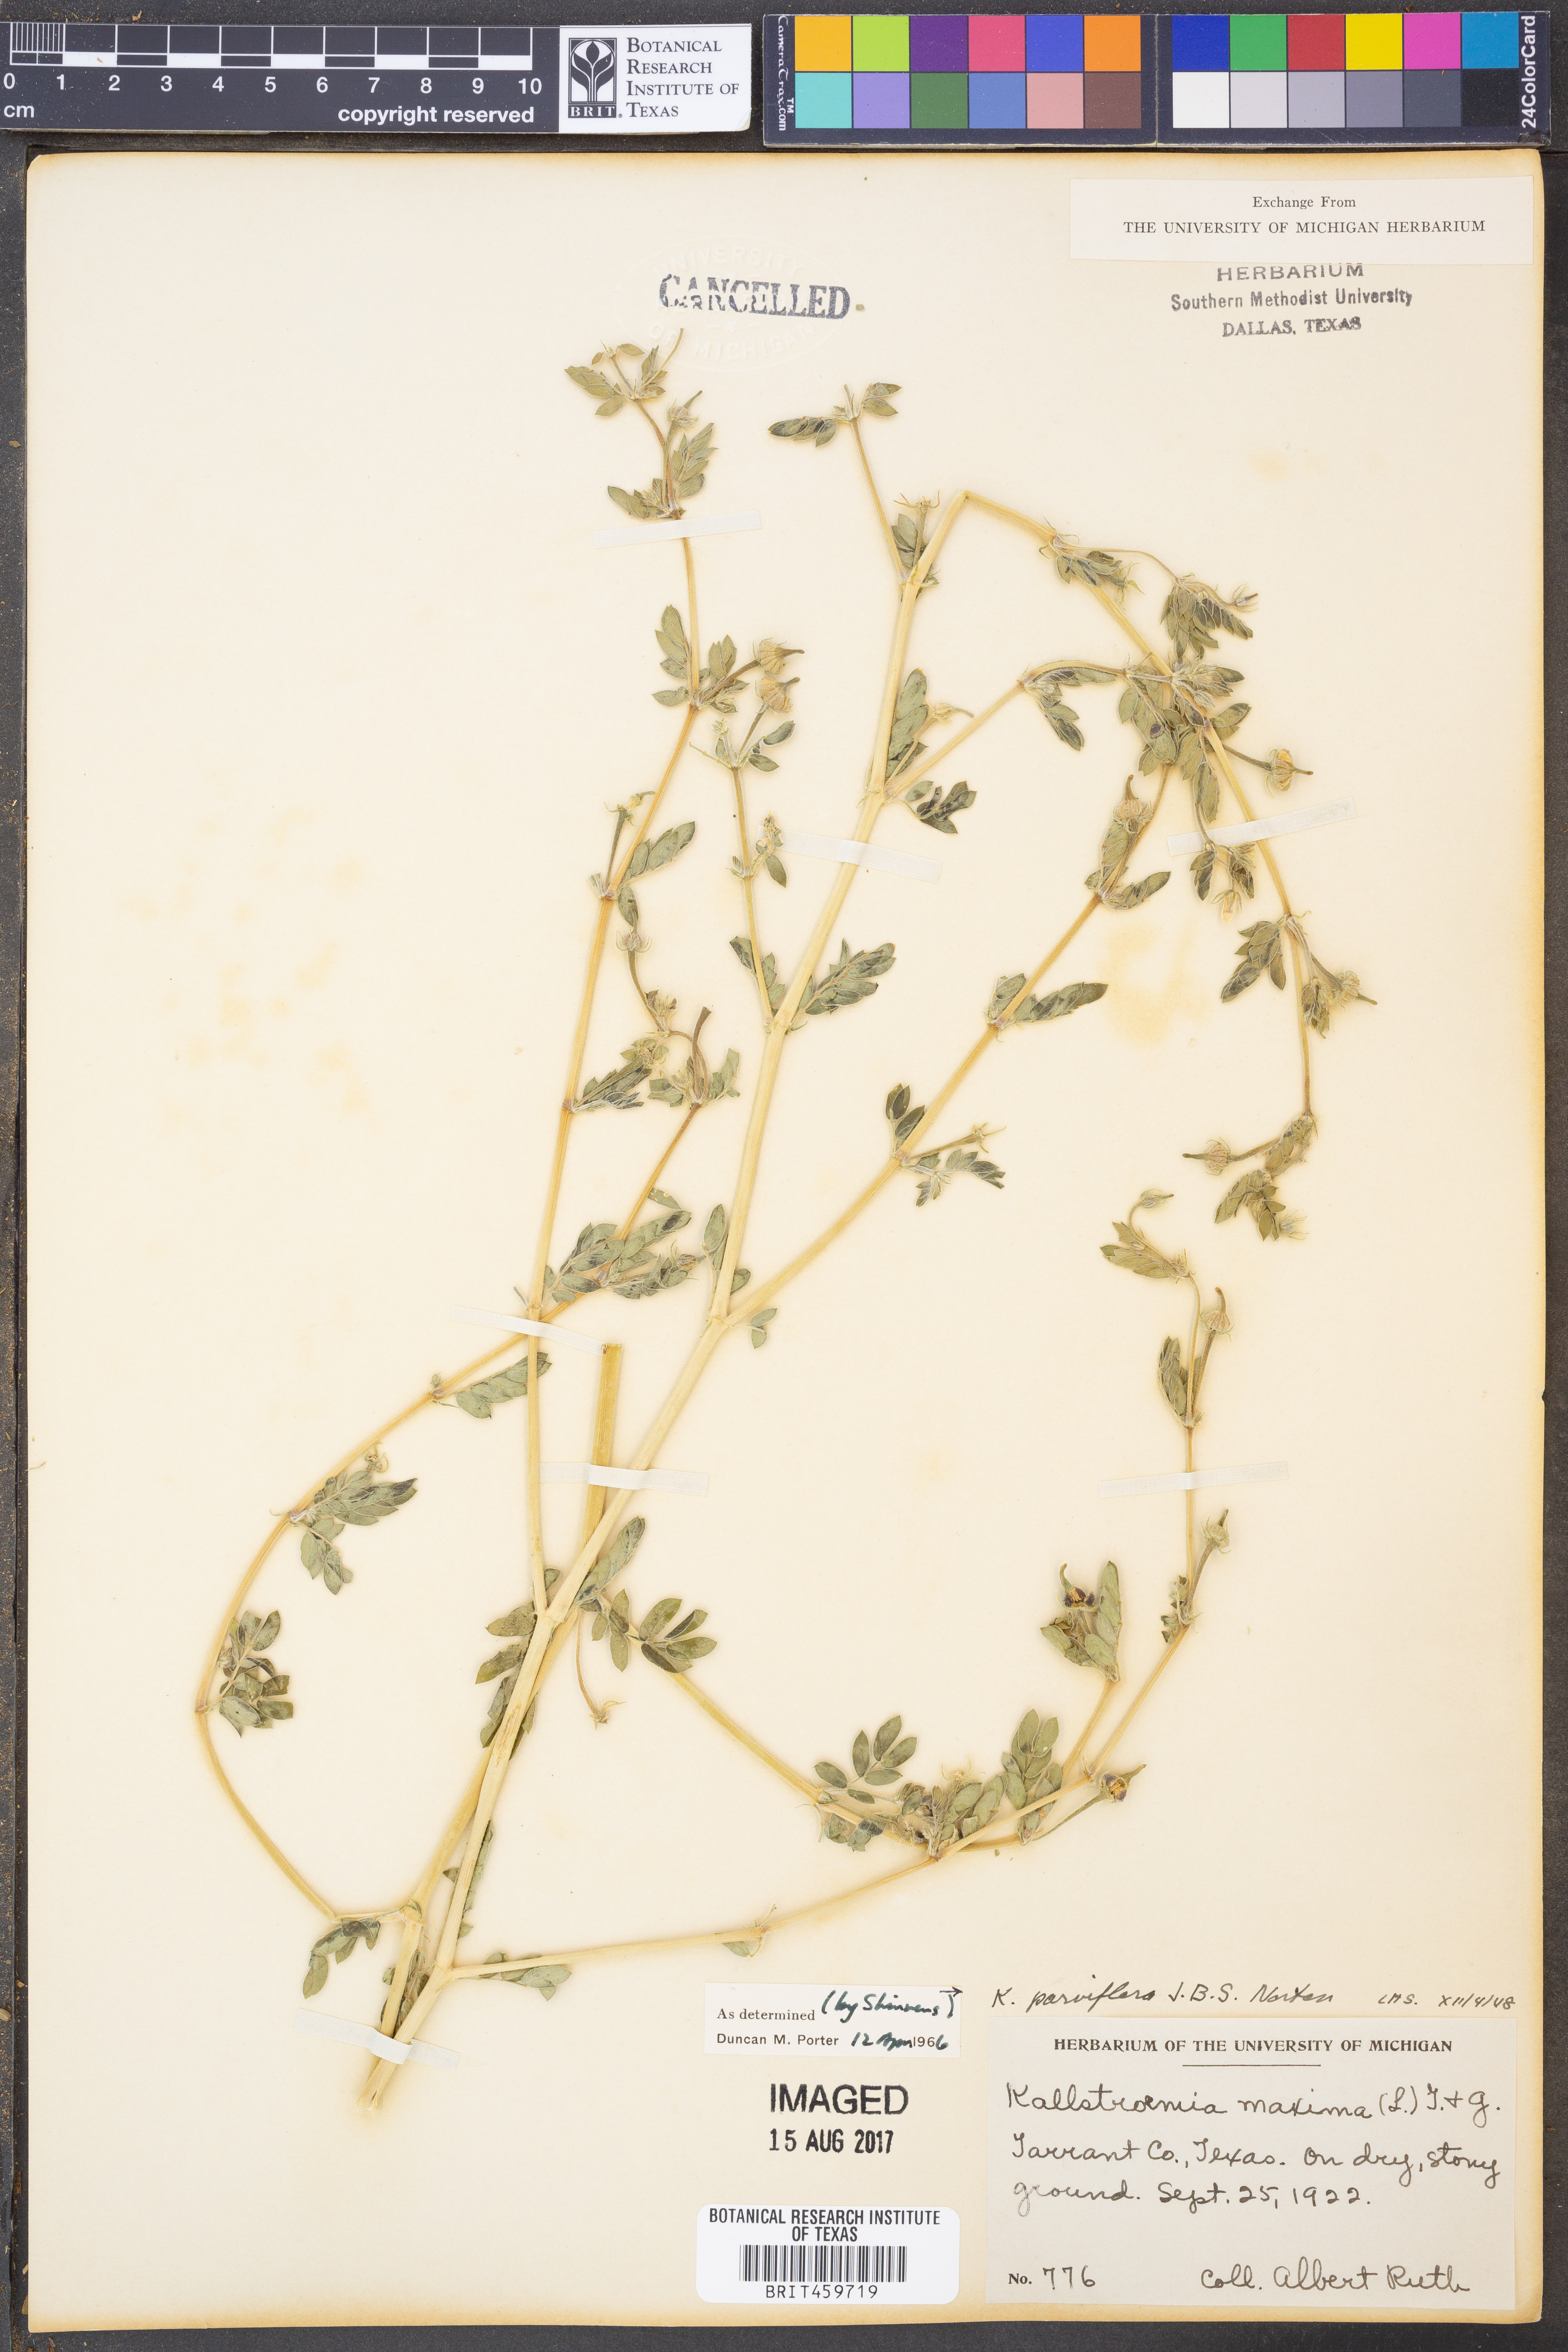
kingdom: Plantae
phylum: Tracheophyta
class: Magnoliopsida
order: Zygophyllales
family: Zygophyllaceae
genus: Kallstroemia
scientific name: Kallstroemia parviflora
